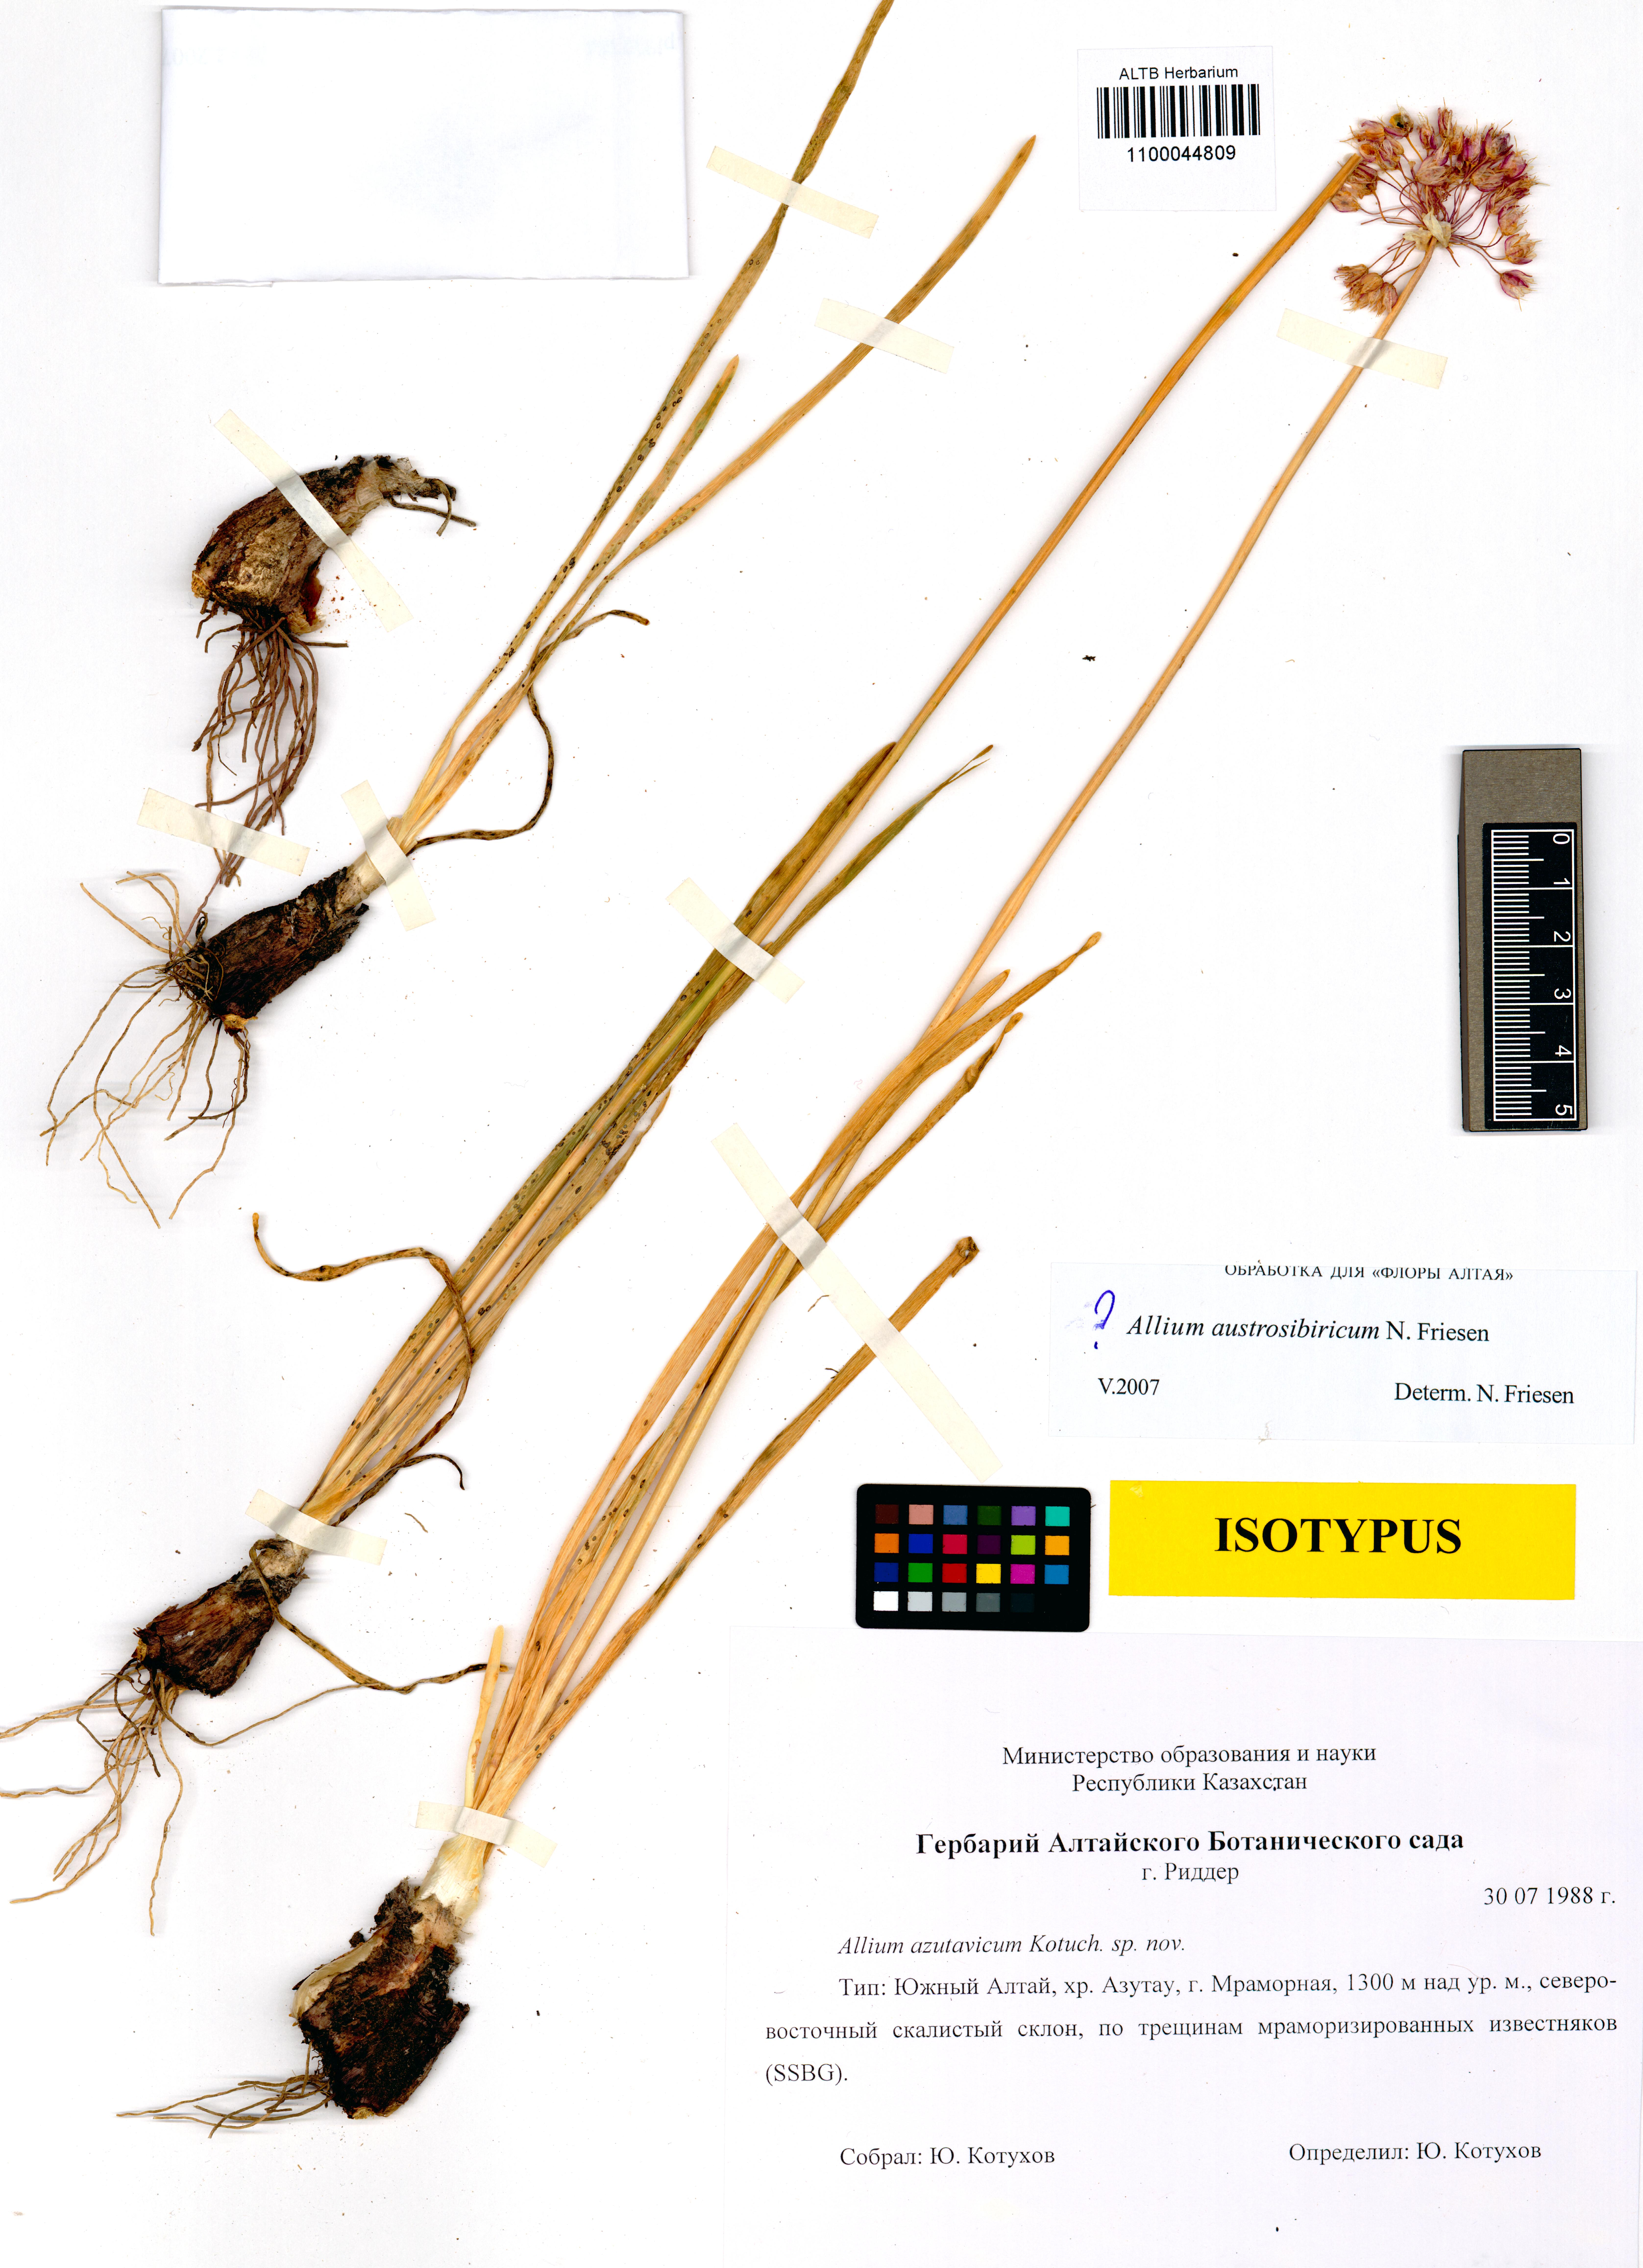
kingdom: Plantae
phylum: Tracheophyta
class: Liliopsida
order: Asparagales
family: Amaryllidaceae
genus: Allium
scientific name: Allium austrosibiricum
